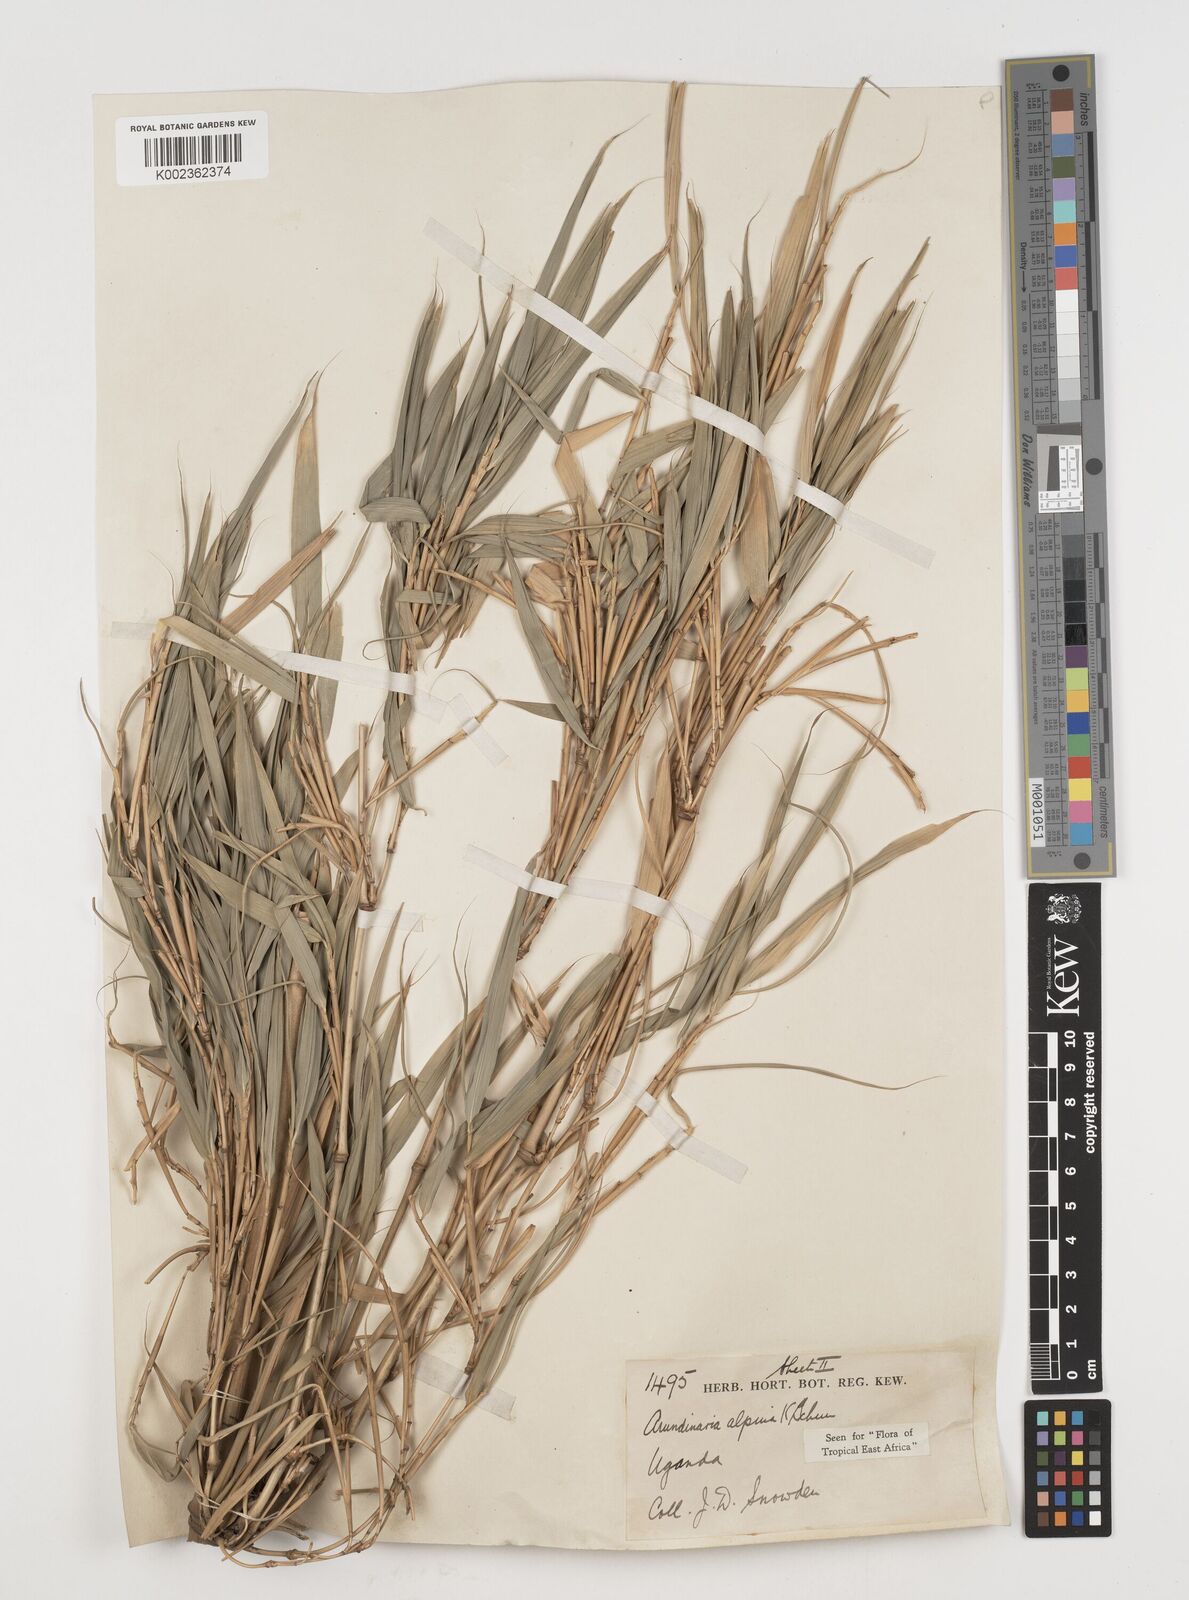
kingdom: Plantae
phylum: Tracheophyta
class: Liliopsida
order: Poales
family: Poaceae
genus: Oldeania
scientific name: Oldeania alpina
